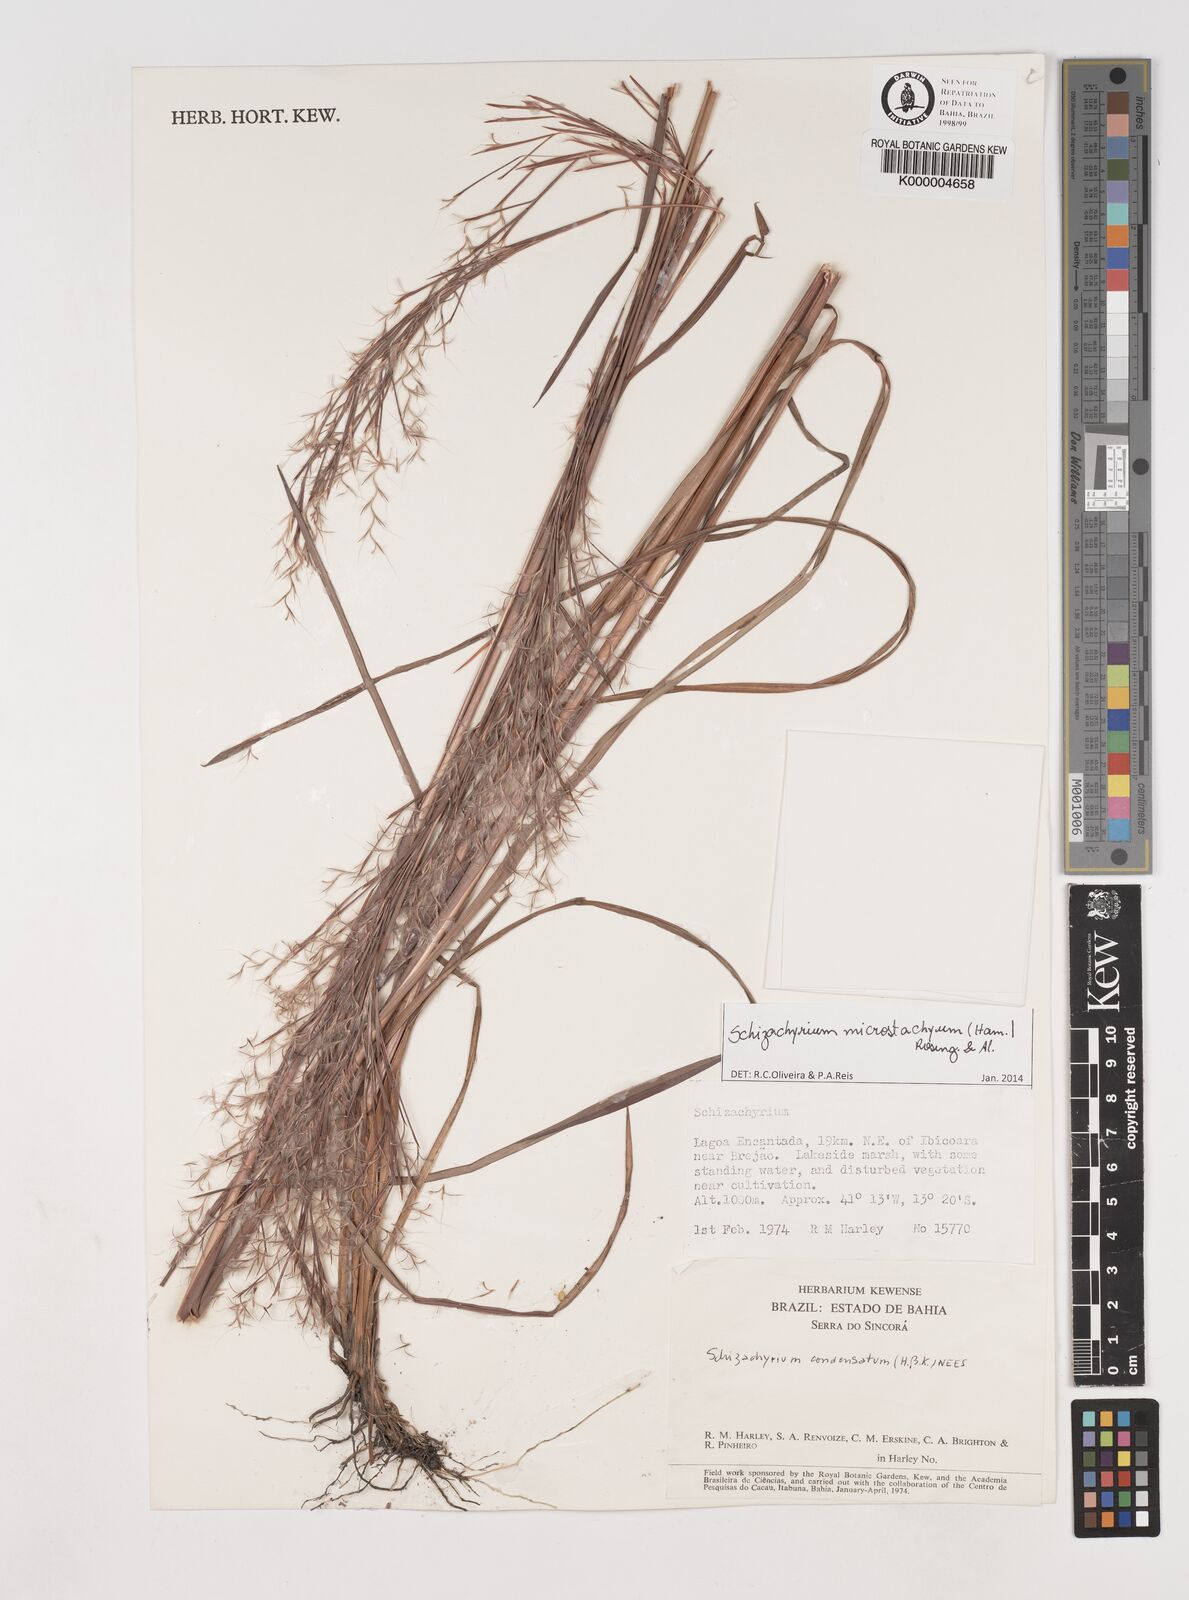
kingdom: Plantae
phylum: Tracheophyta
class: Liliopsida
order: Poales
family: Poaceae
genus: Schizachyrium
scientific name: Schizachyrium condensatum
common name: Bush beardgrass
